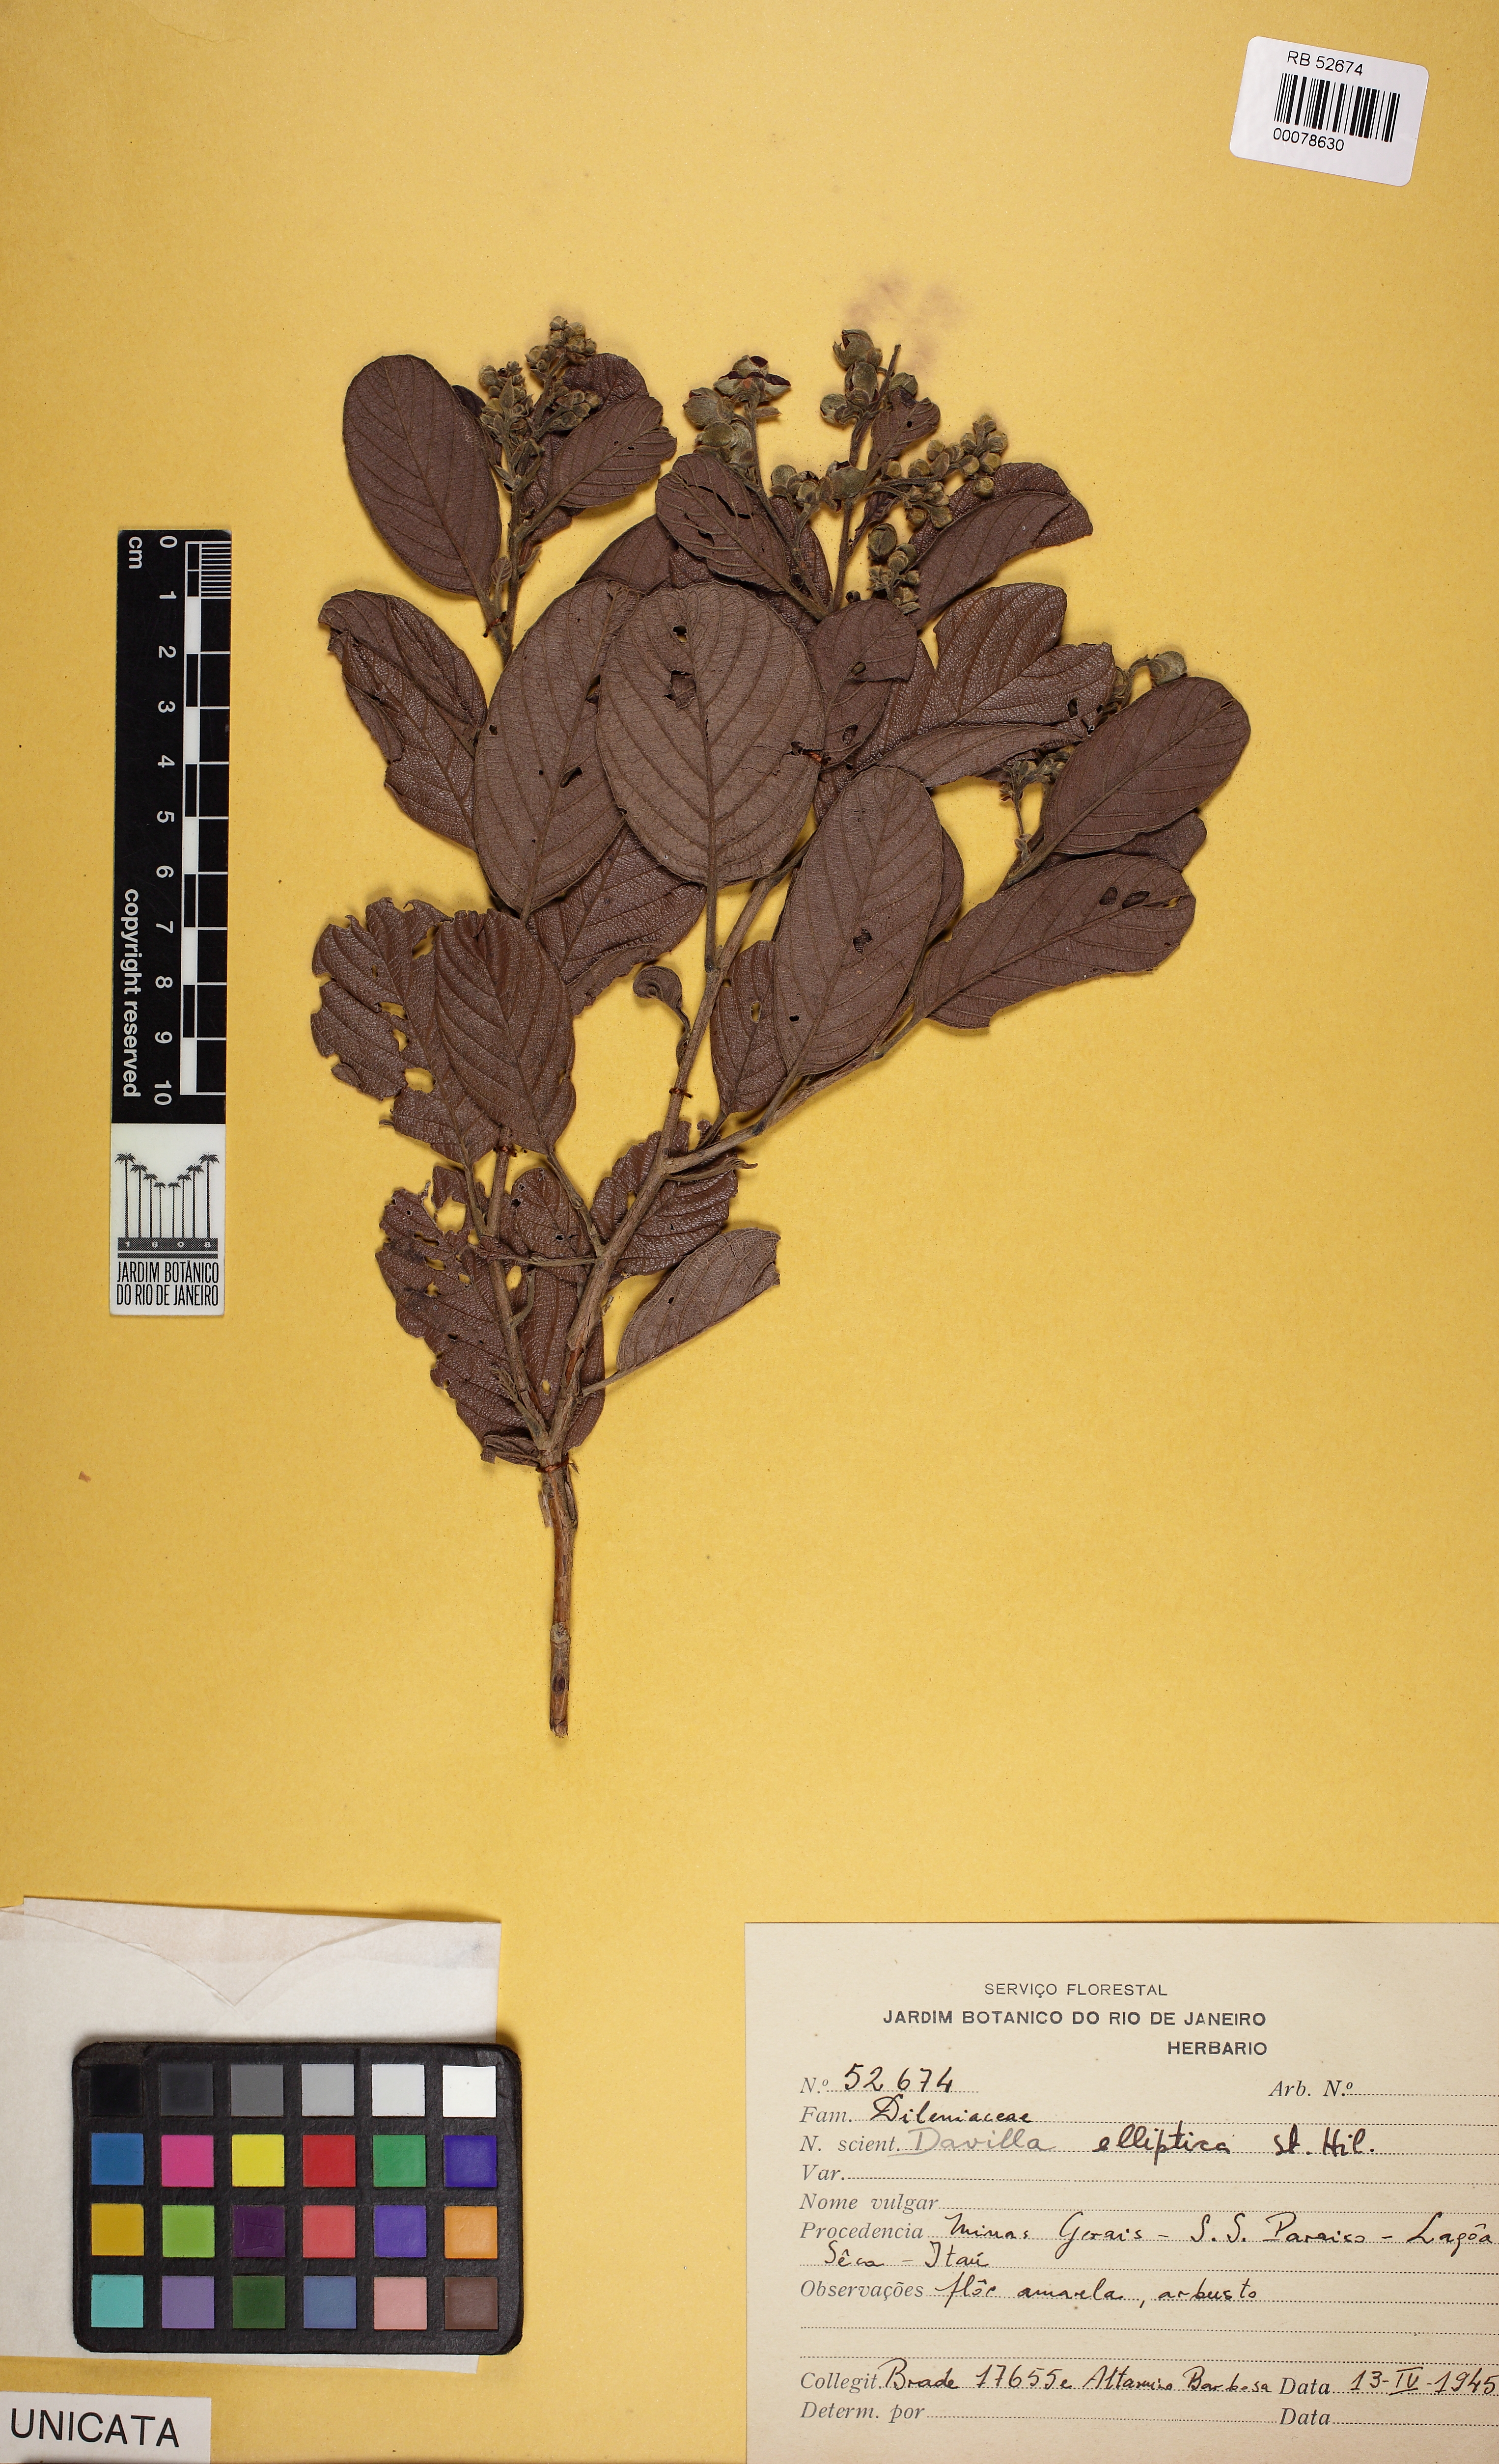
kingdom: Plantae
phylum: Tracheophyta
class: Magnoliopsida
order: Dilleniales
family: Dilleniaceae
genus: Davilla
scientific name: Davilla elliptica
